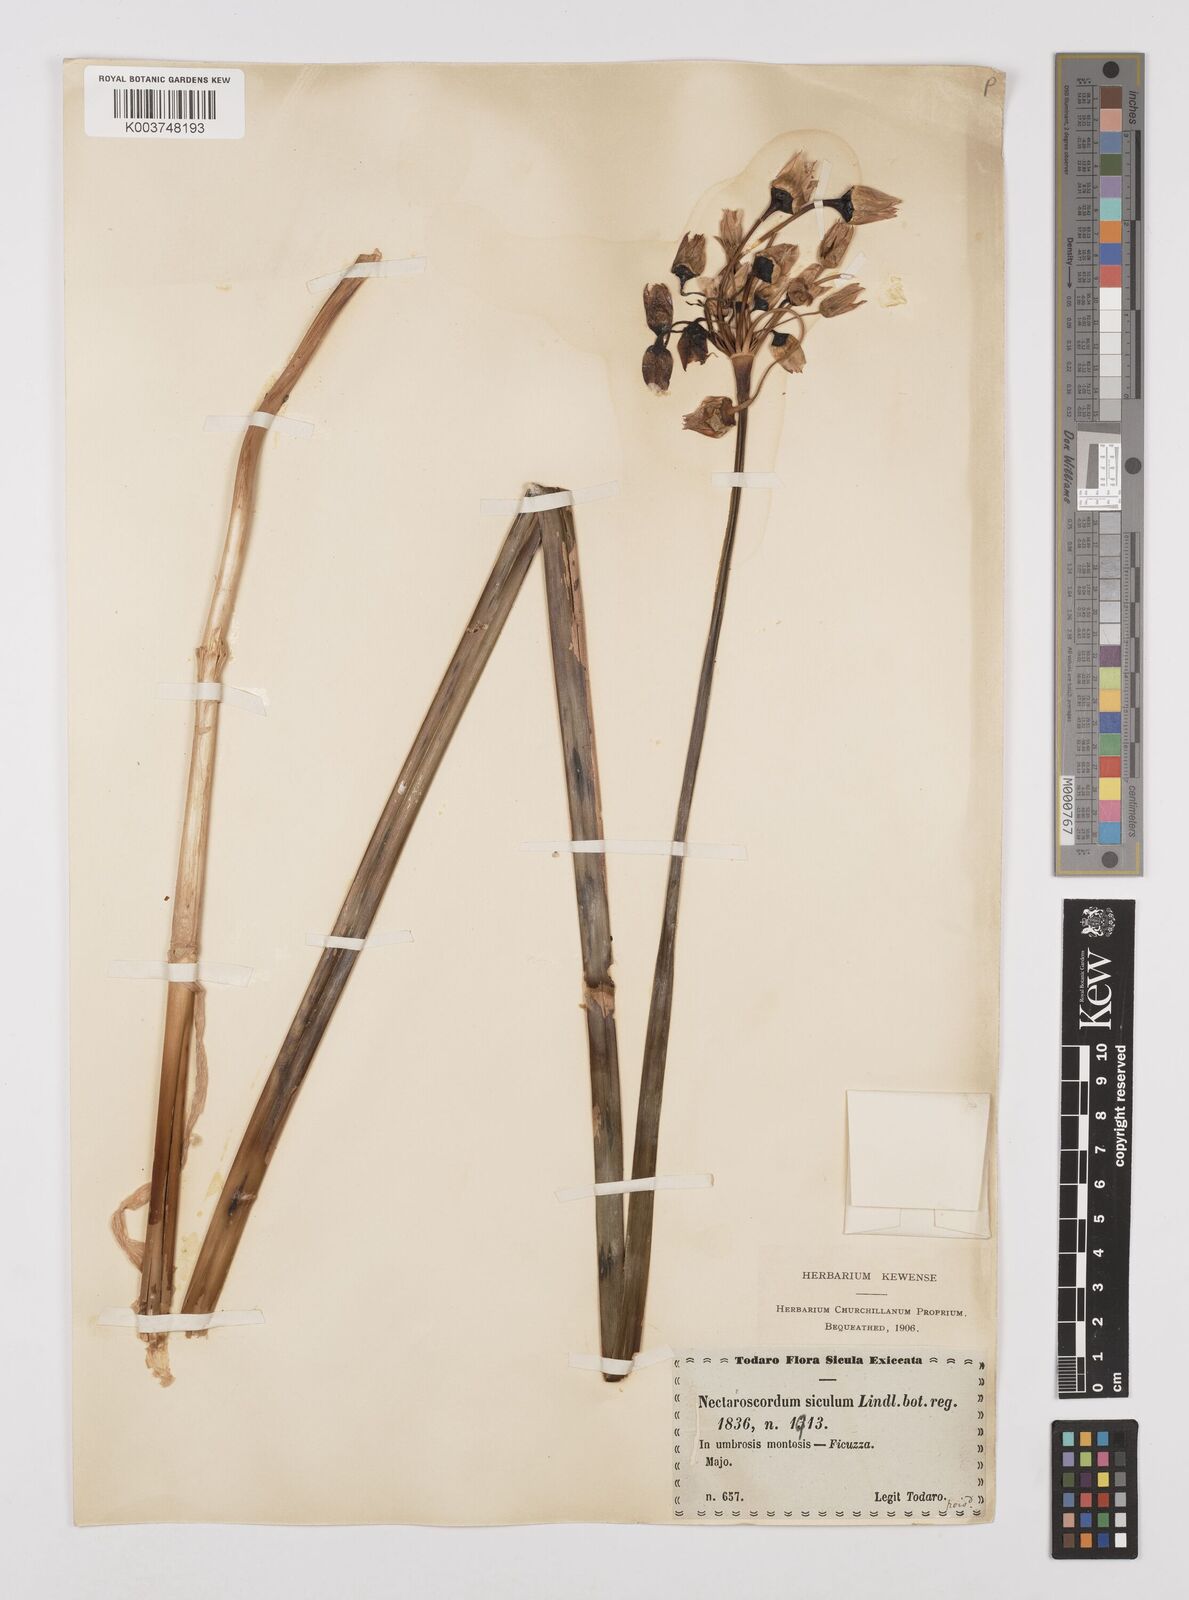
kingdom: Plantae
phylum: Tracheophyta
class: Liliopsida
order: Asparagales
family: Amaryllidaceae
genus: Allium
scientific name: Allium siculum
